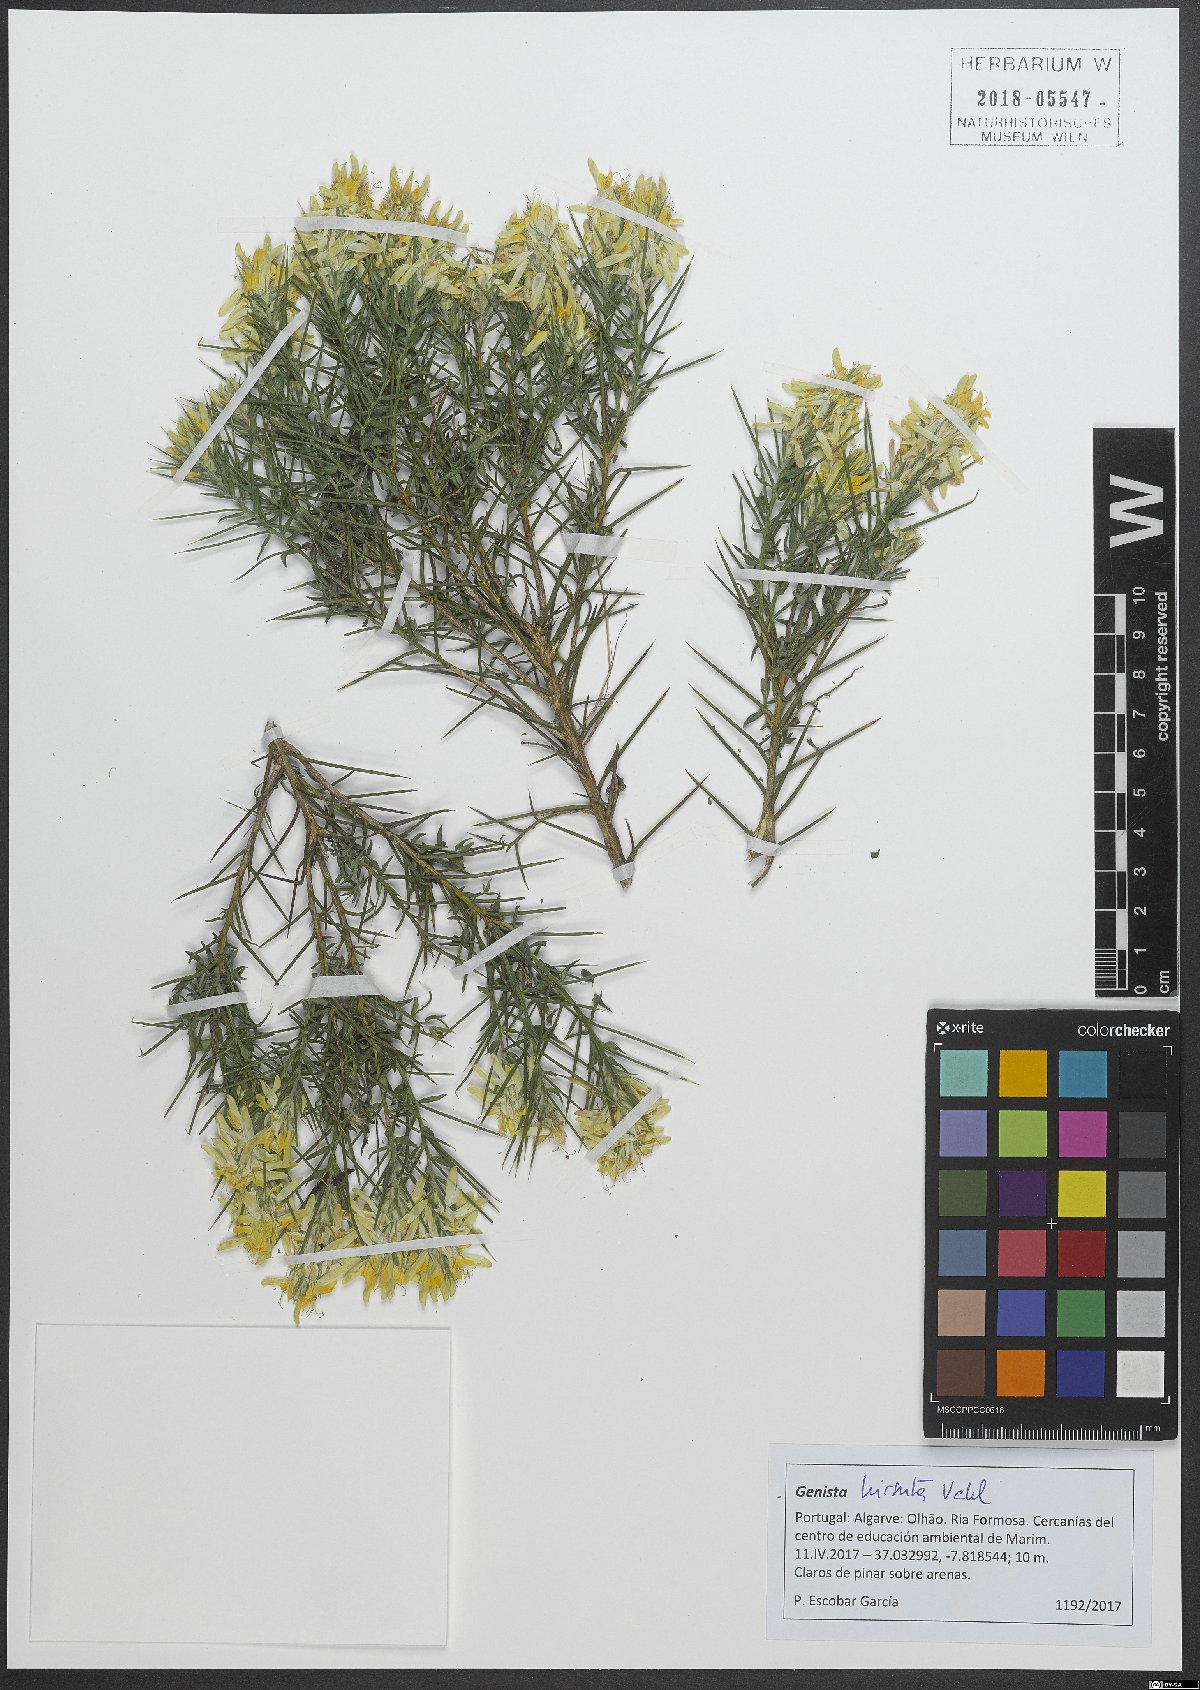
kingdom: Plantae
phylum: Tracheophyta
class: Magnoliopsida
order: Fabales
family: Fabaceae
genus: Genista
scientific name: Genista hirsuta
